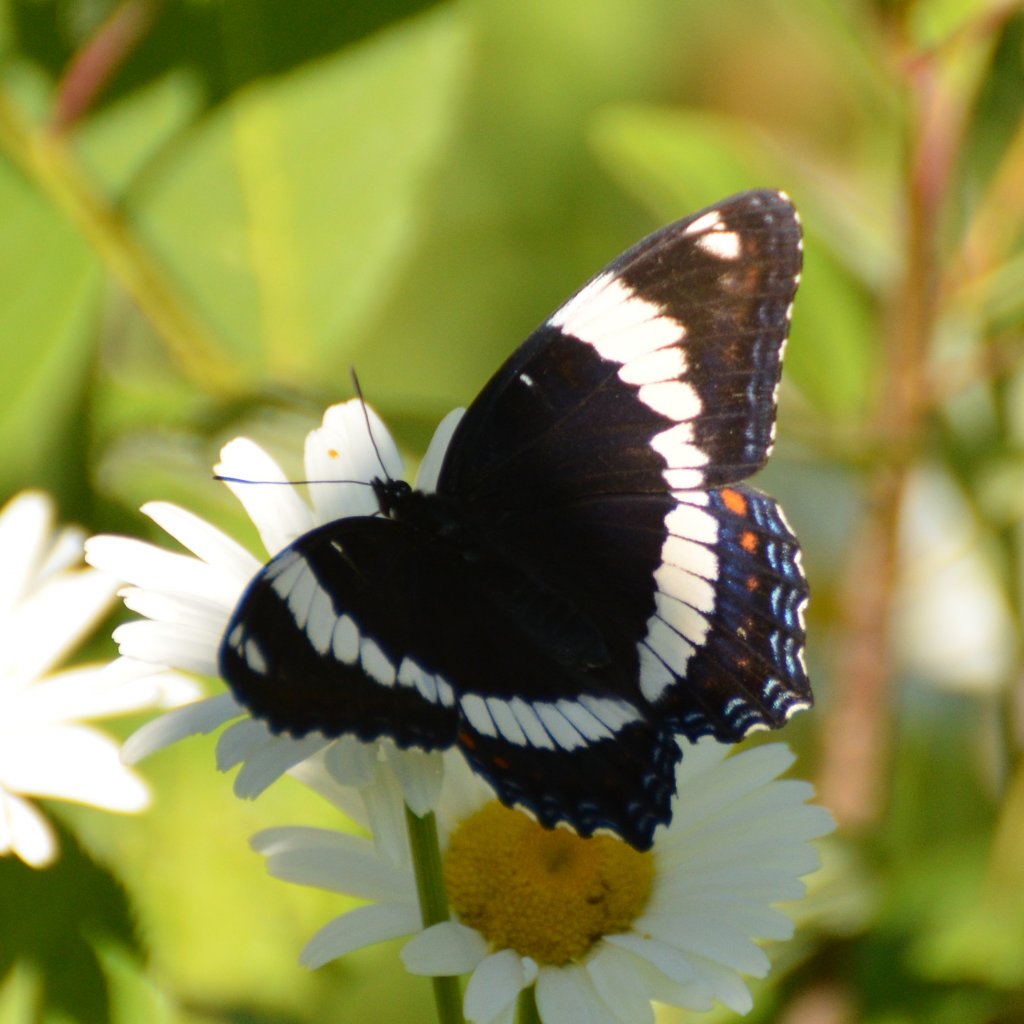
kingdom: Animalia
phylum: Arthropoda
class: Insecta
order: Lepidoptera
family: Nymphalidae
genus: Limenitis
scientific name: Limenitis arthemis
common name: Red-spotted Admiral
